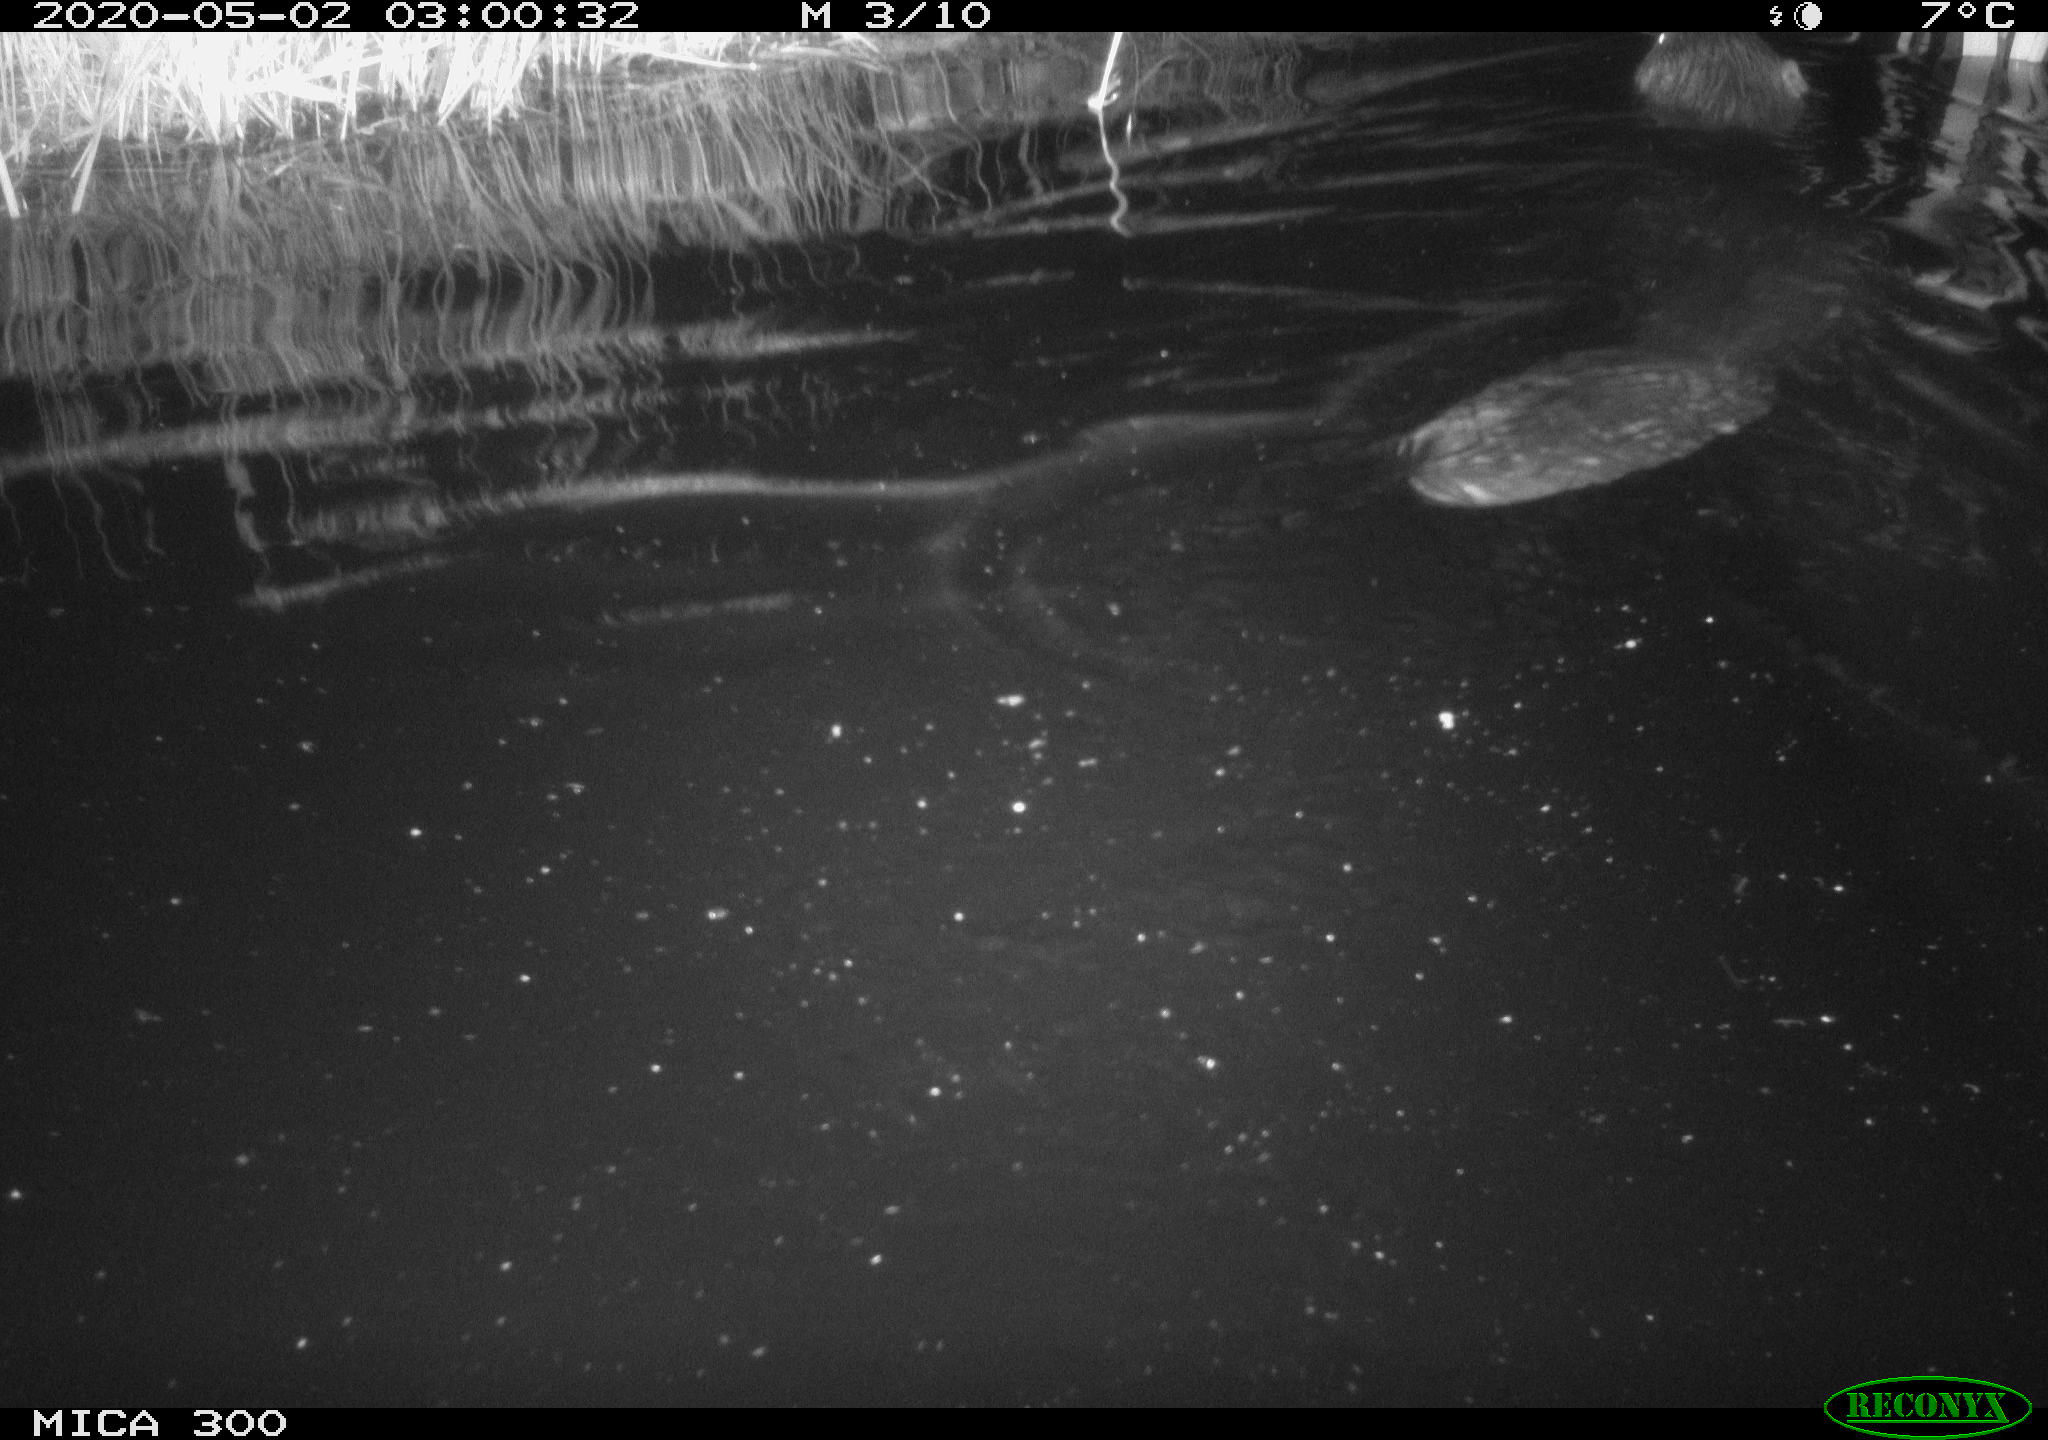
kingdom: Animalia
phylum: Chordata
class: Mammalia
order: Rodentia
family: Castoridae
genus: Castor
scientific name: Castor fiber
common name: Eurasian beaver
